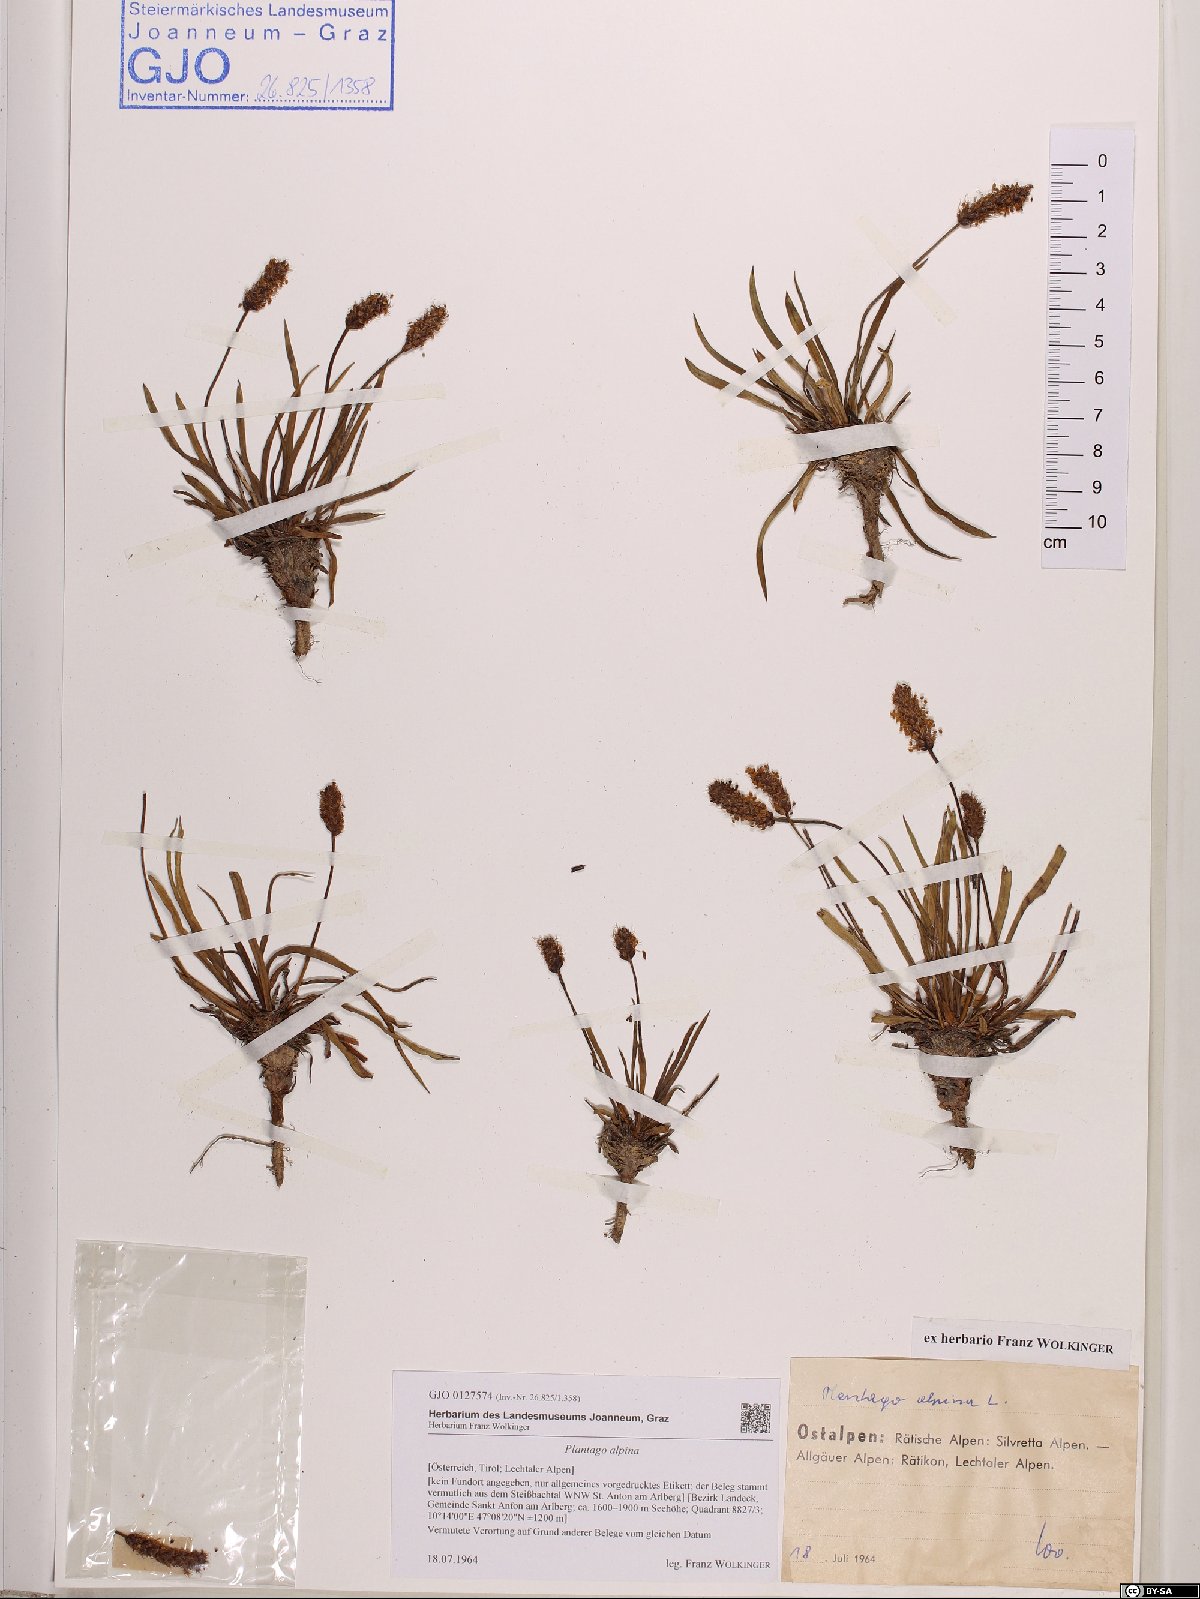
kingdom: Plantae
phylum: Tracheophyta
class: Magnoliopsida
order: Lamiales
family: Plantaginaceae
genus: Plantago
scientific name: Plantago alpina
